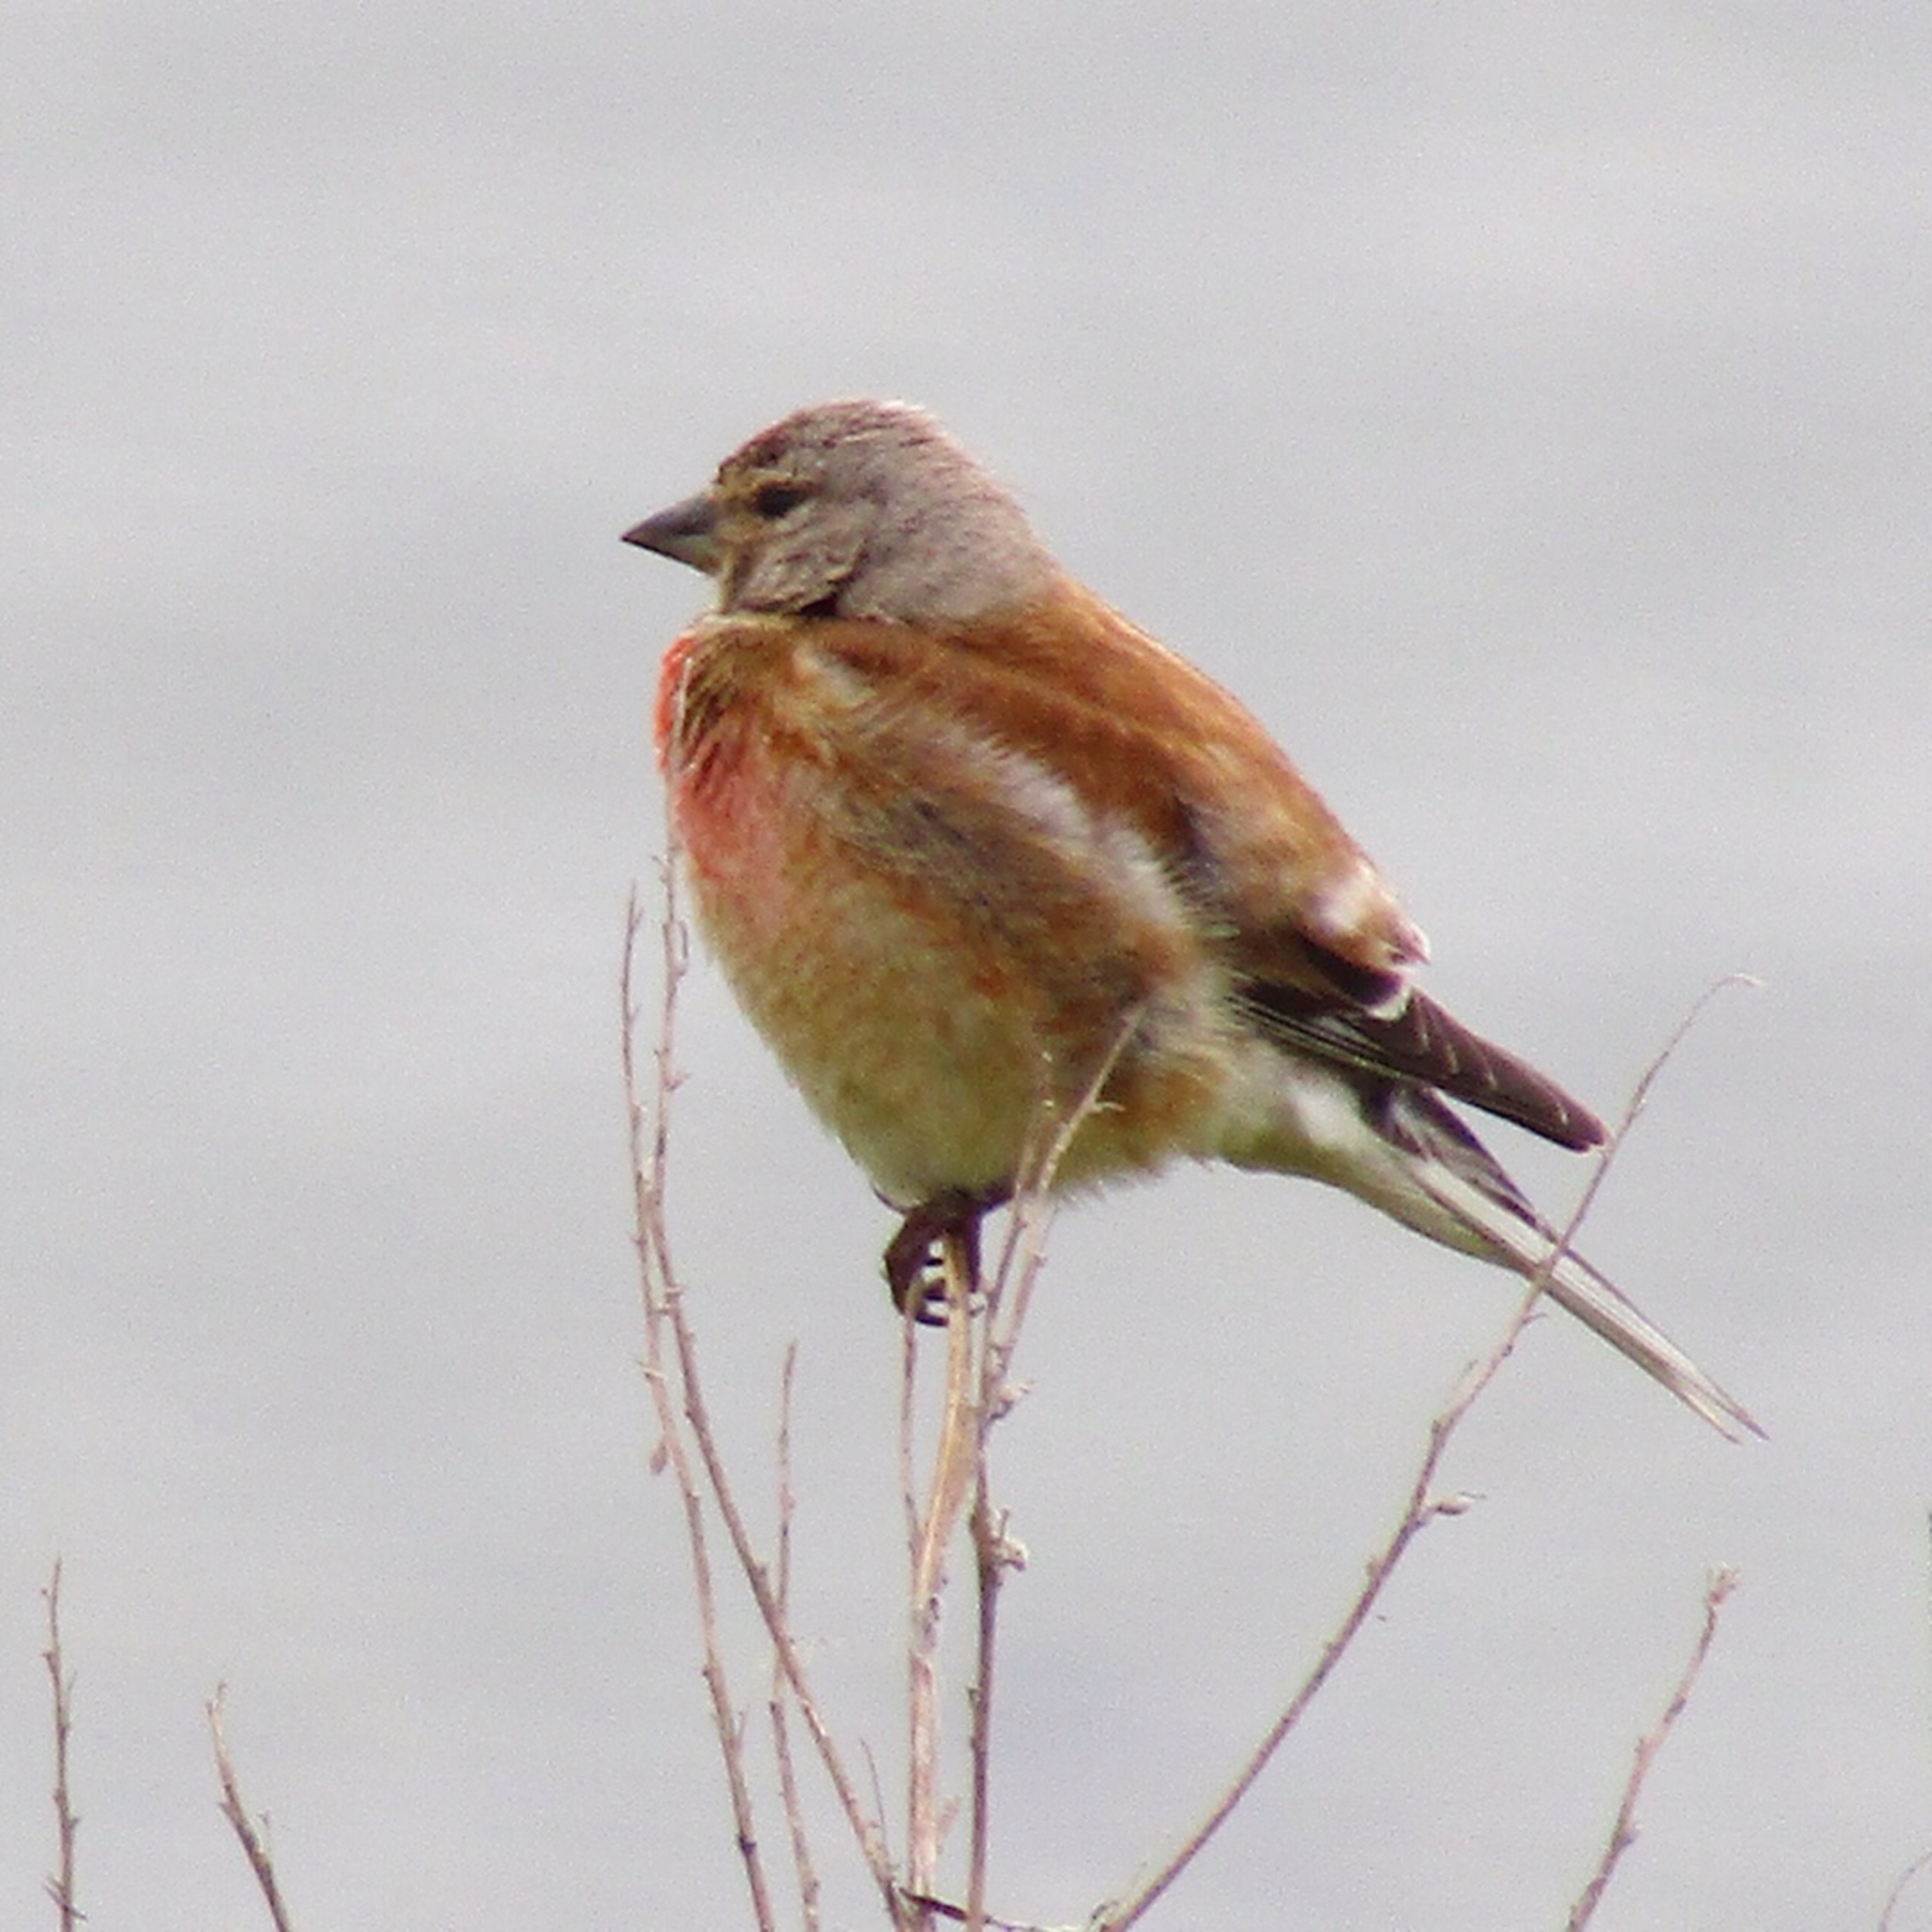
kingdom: Animalia
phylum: Chordata
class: Aves
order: Passeriformes
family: Fringillidae
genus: Linaria
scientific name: Linaria cannabina
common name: Tornirisk
